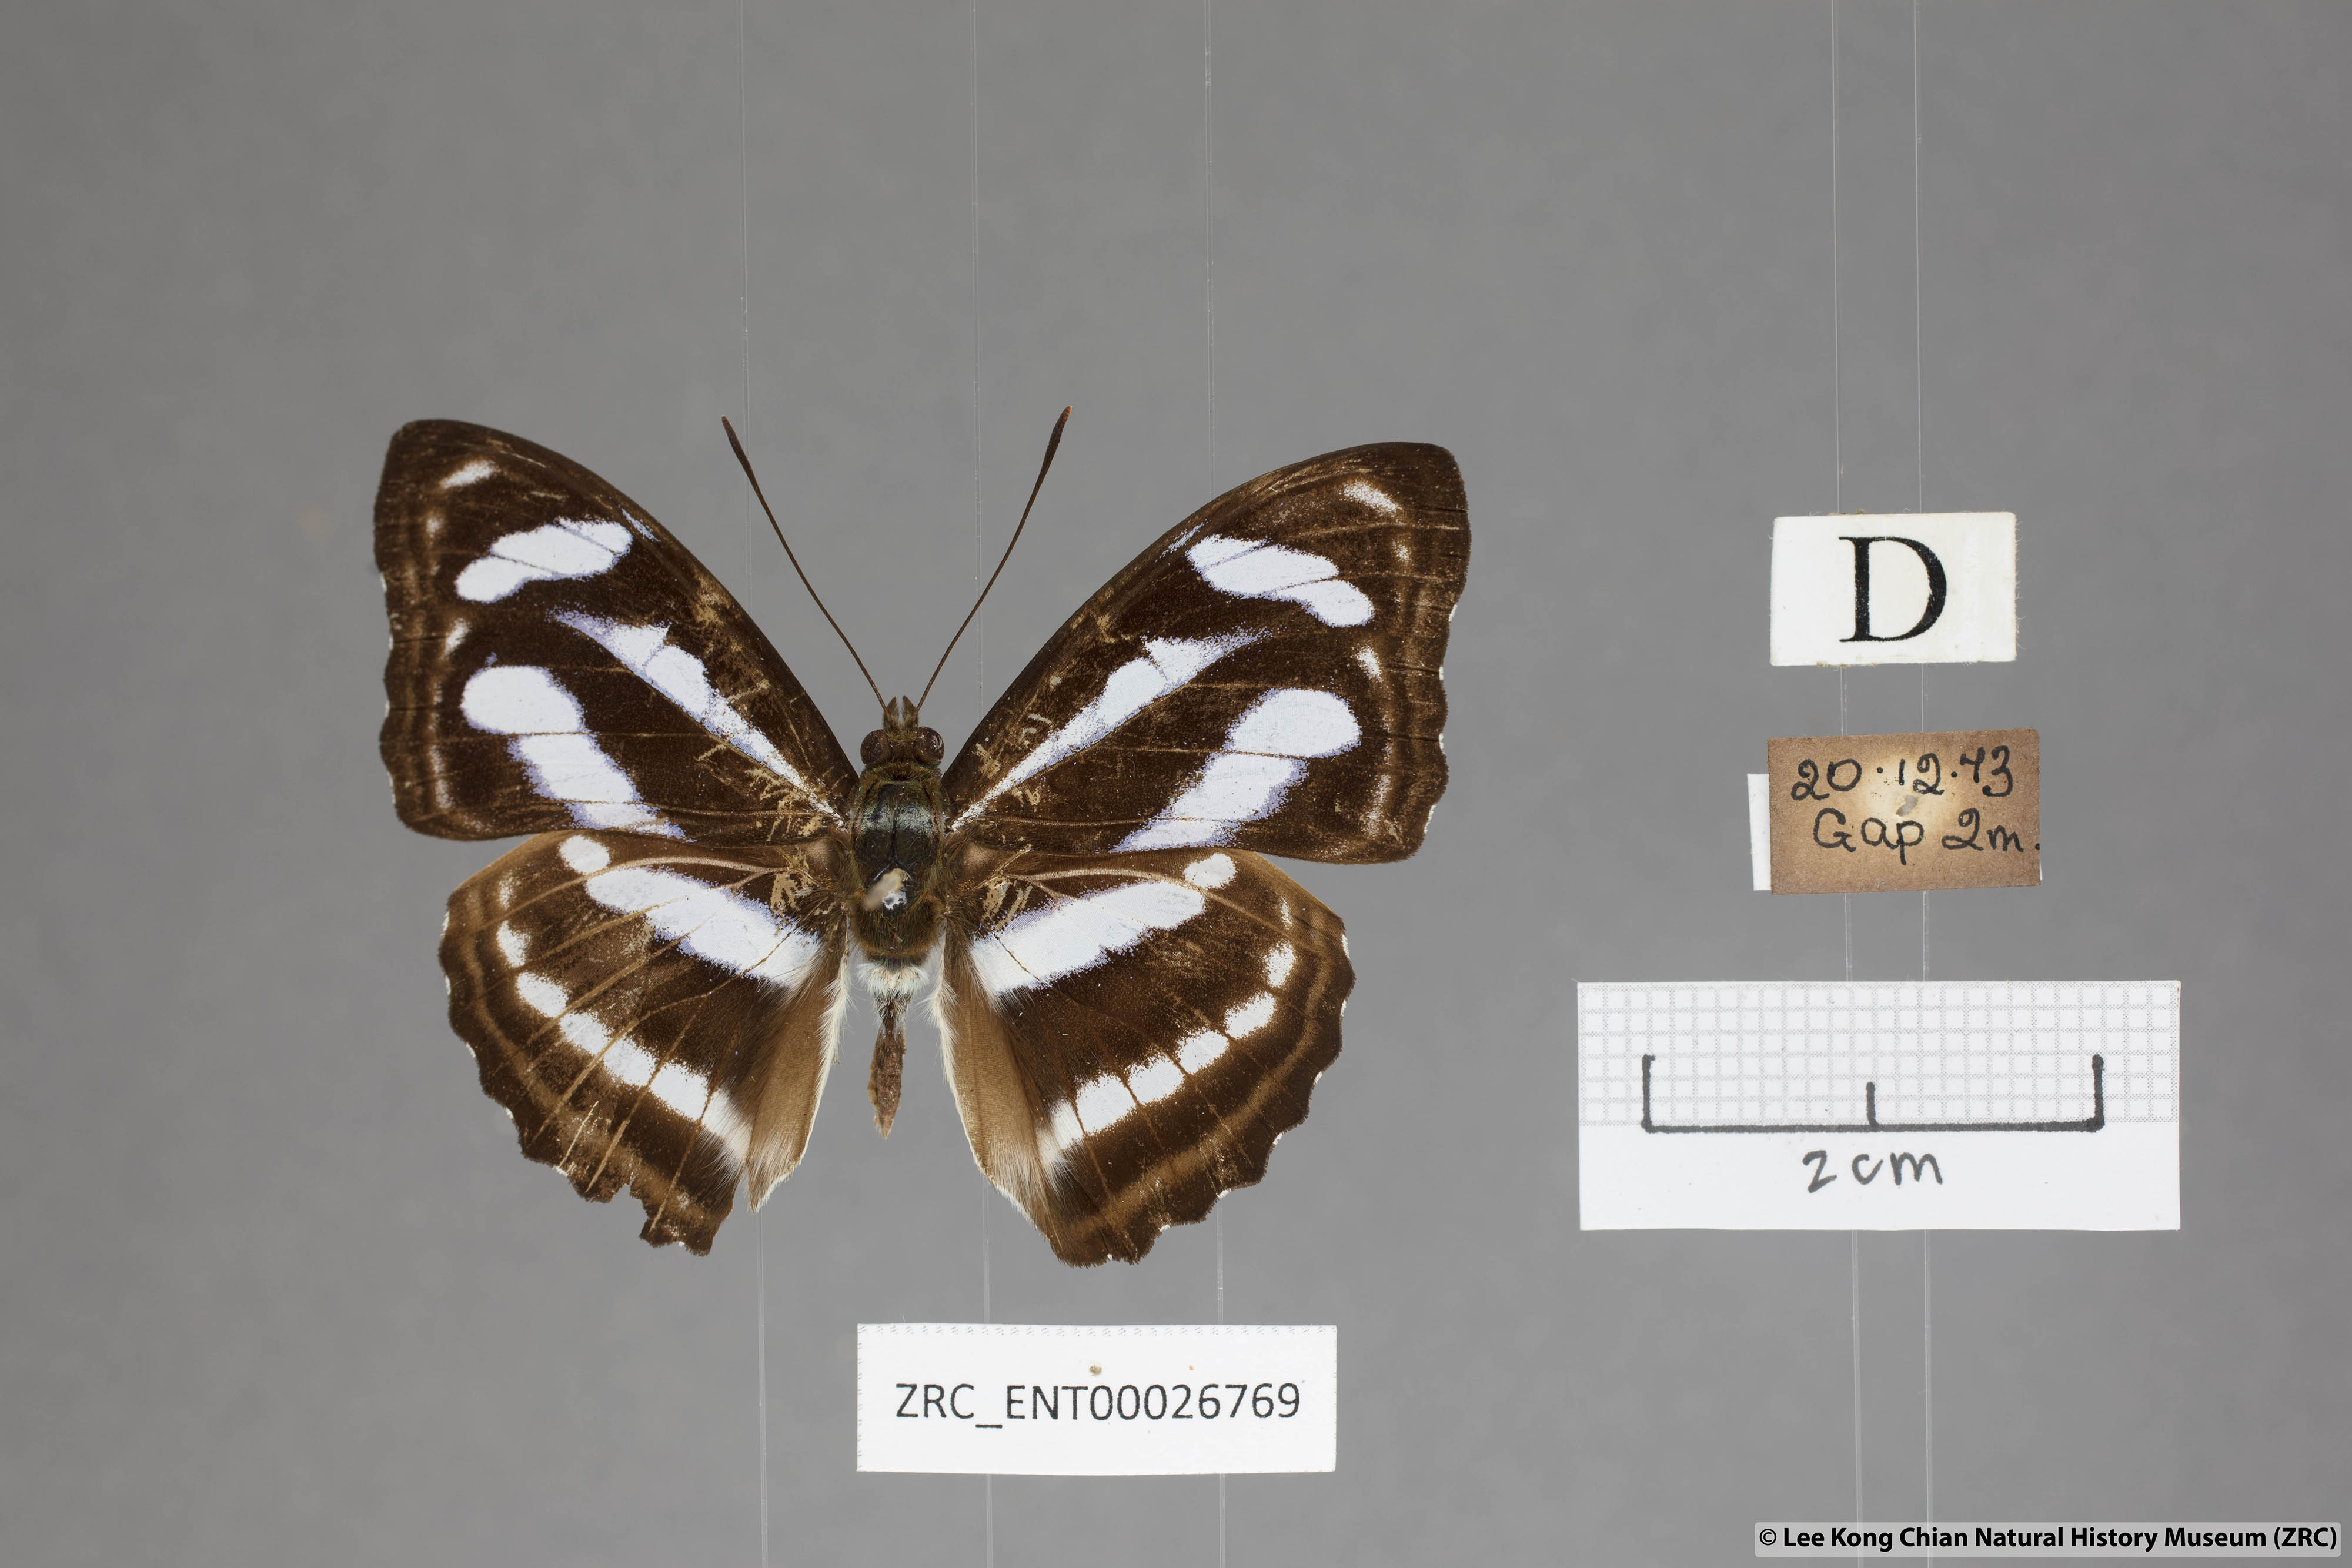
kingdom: Animalia
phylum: Arthropoda
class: Insecta
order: Lepidoptera
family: Nymphalidae
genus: Parathyma
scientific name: Parathyma nefte
